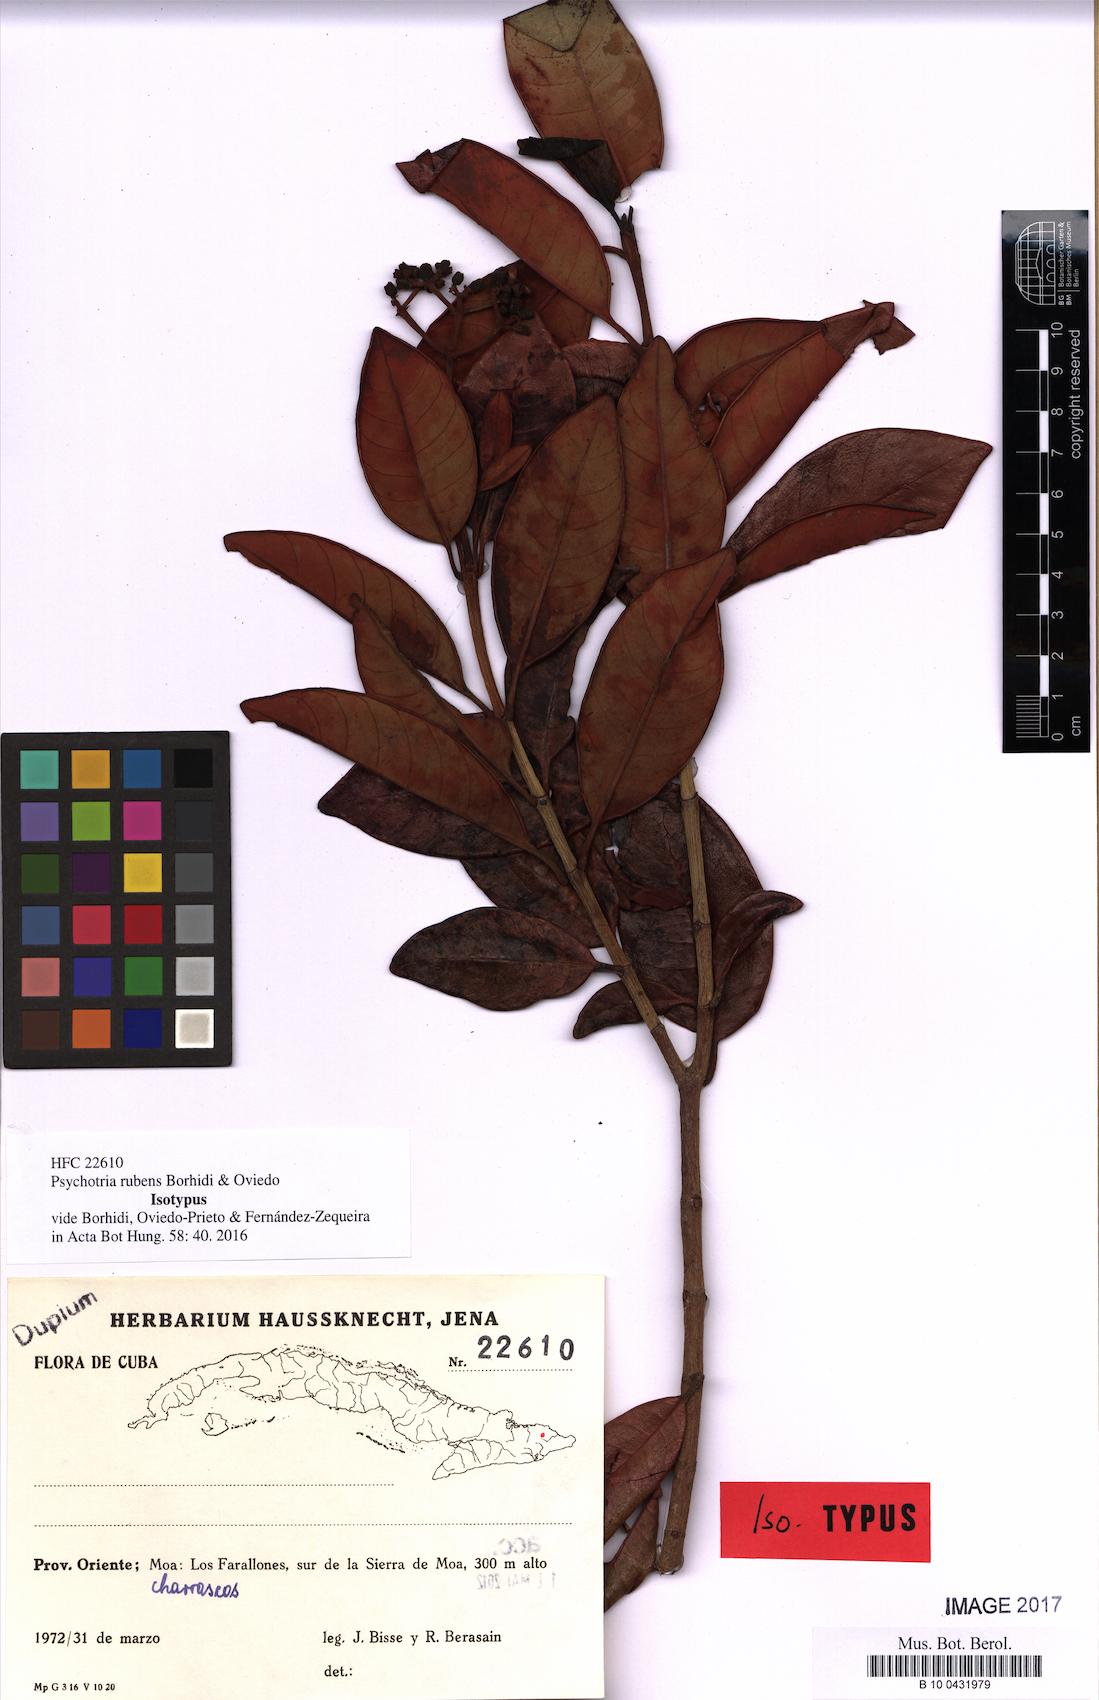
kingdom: Plantae
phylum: Tracheophyta
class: Magnoliopsida
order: Gentianales
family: Rubiaceae
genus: Psychotria
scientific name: Psychotria rubens
